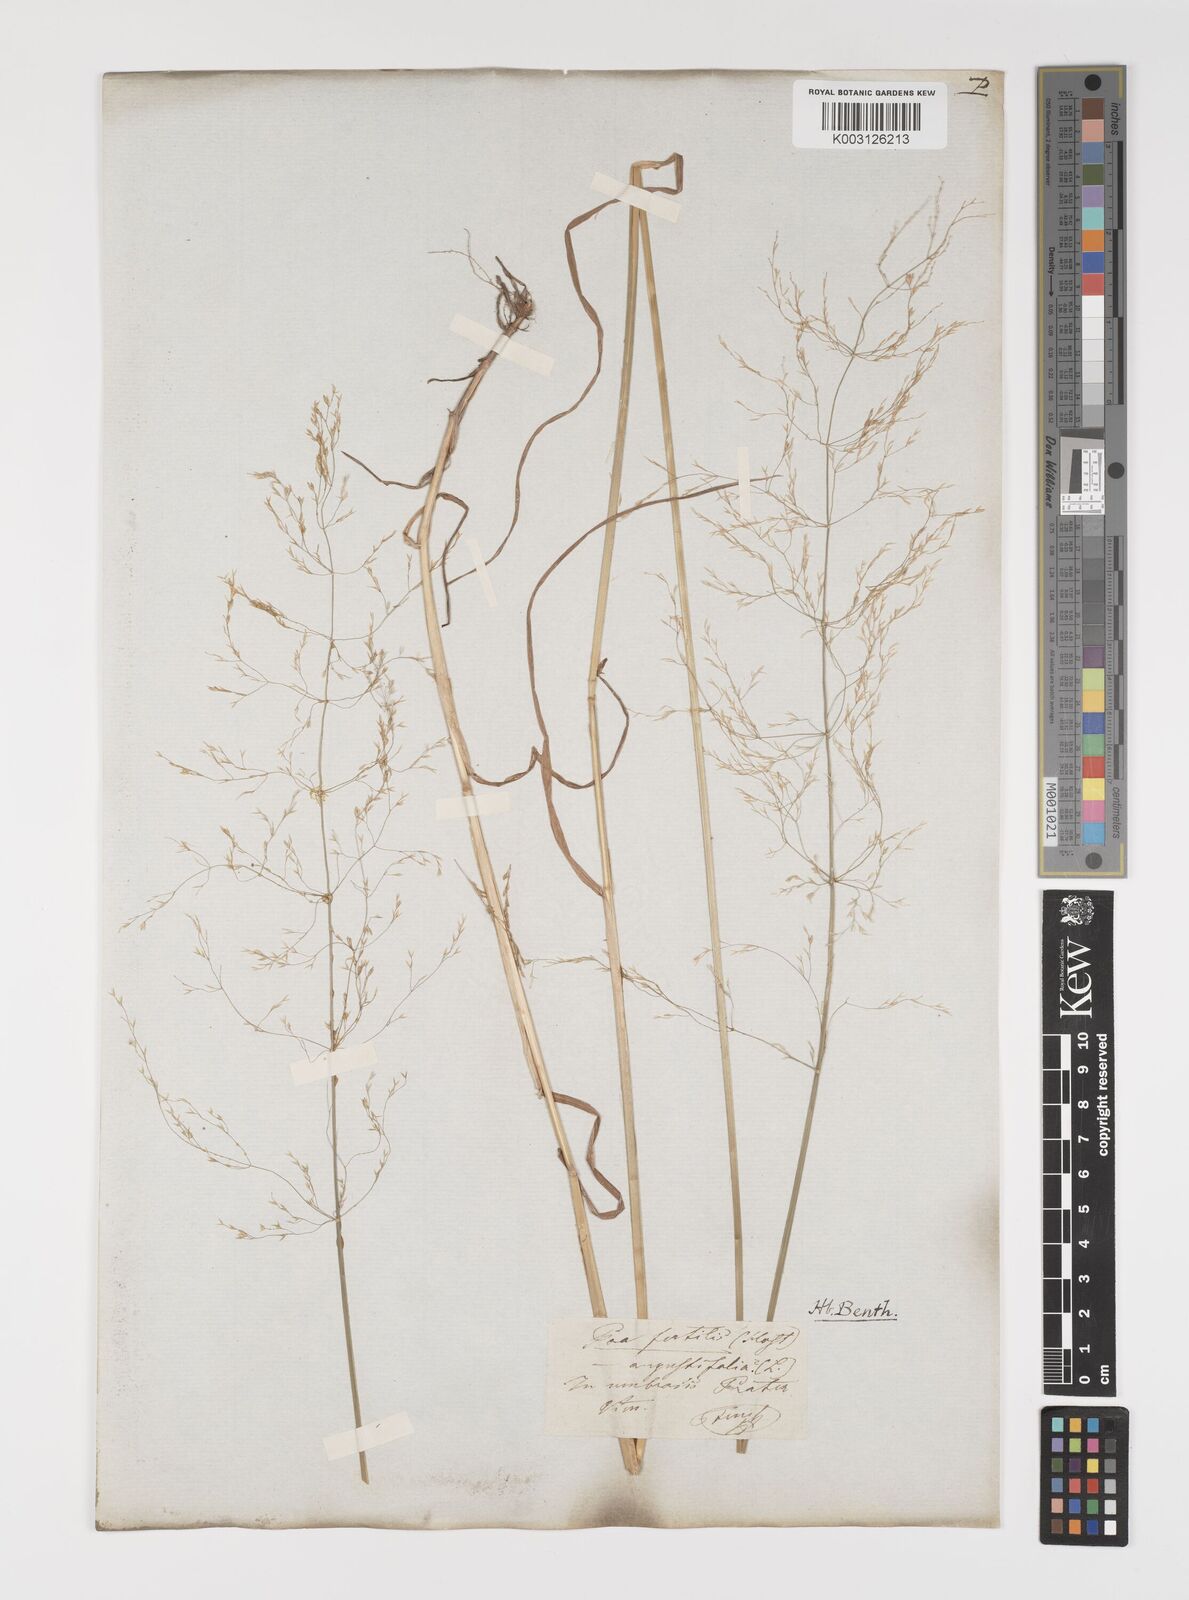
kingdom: Plantae
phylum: Tracheophyta
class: Liliopsida
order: Poales
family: Poaceae
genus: Poa
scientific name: Poa palustris
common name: Swamp meadow-grass
